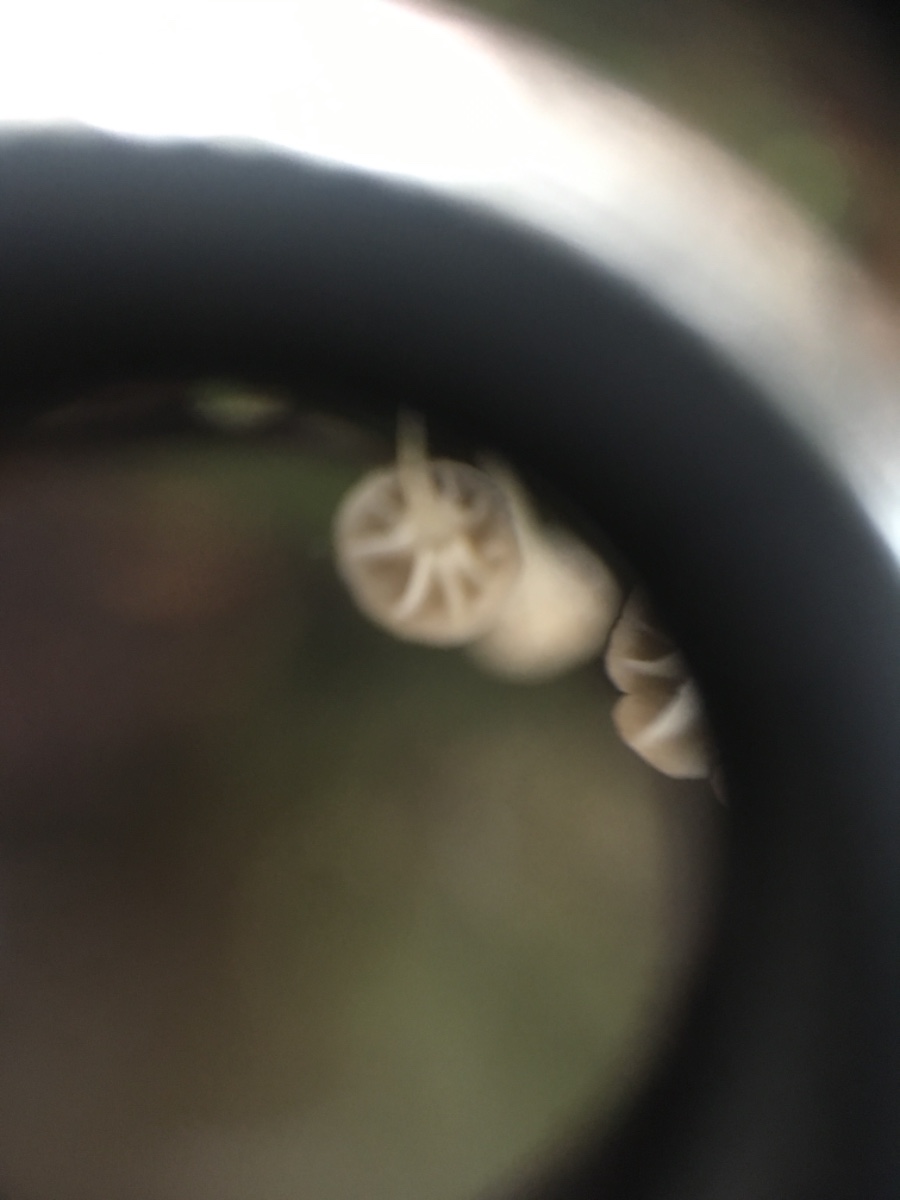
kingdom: Fungi
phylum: Basidiomycota
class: Agaricomycetes
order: Agaricales
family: Porotheleaceae
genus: Phloeomana
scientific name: Phloeomana speirea
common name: kvist-huesvamp
